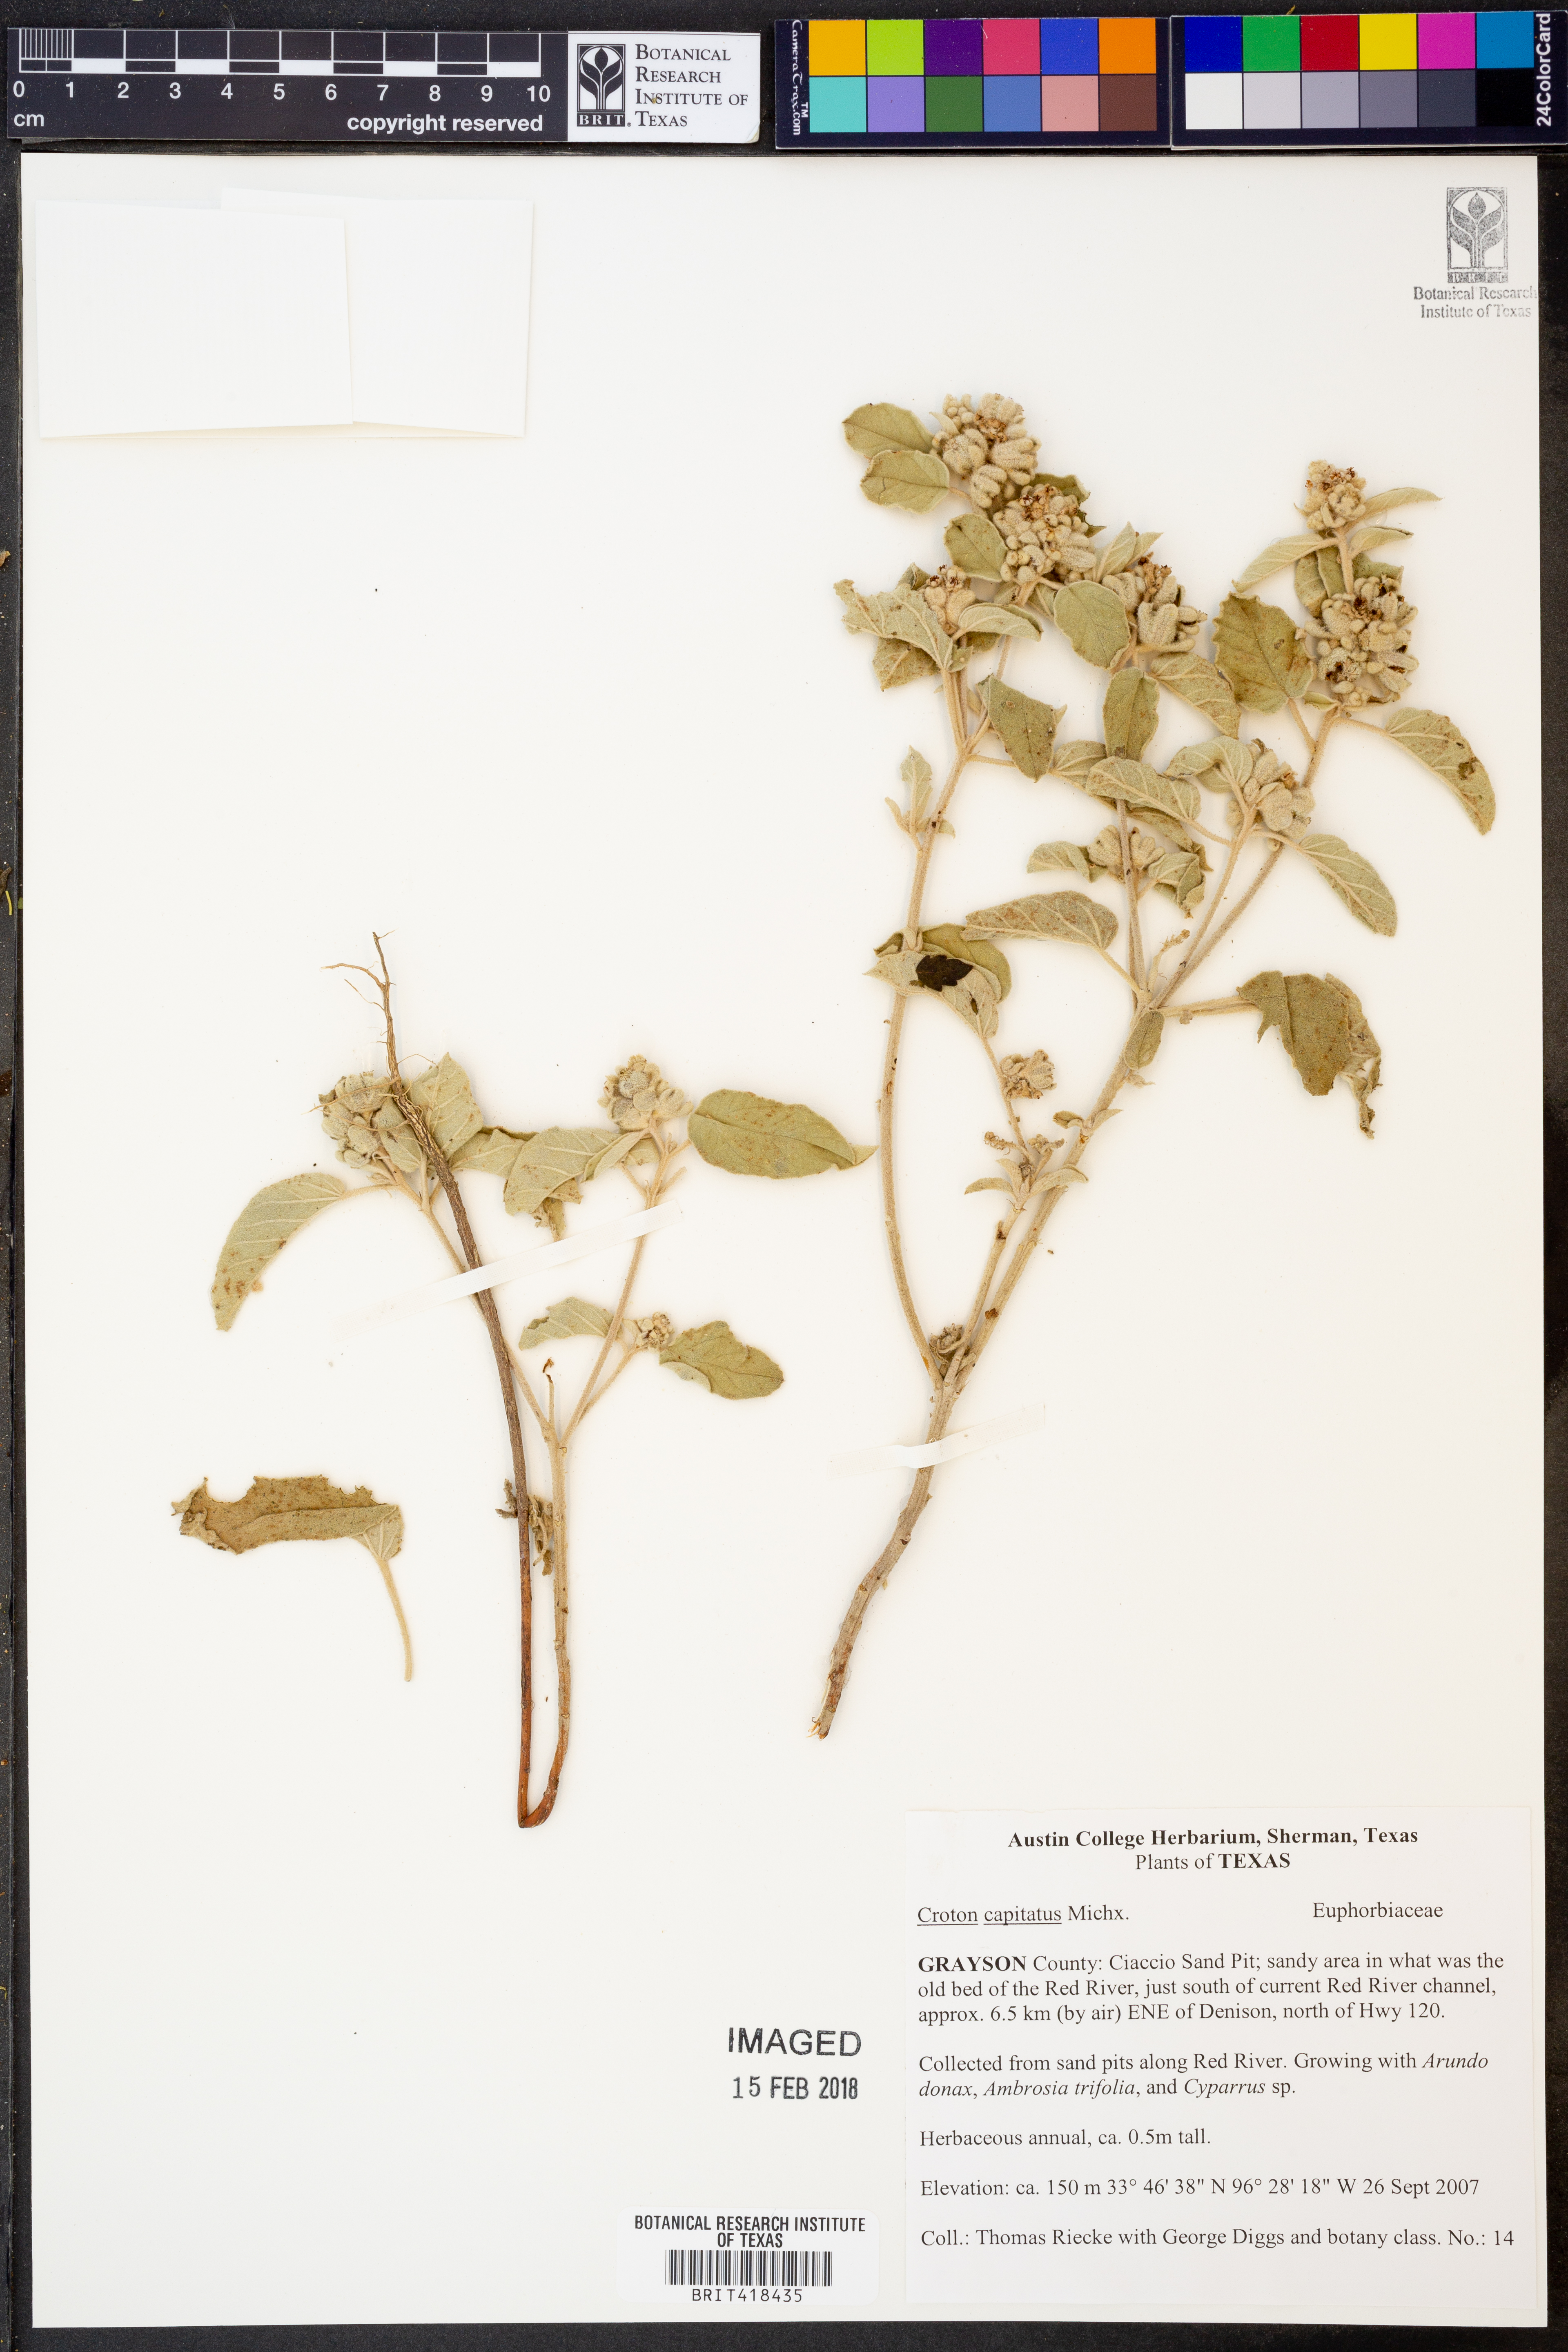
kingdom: Plantae
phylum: Tracheophyta
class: Magnoliopsida
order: Malpighiales
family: Euphorbiaceae
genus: Croton
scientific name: Croton capitatus
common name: Woolly croton
